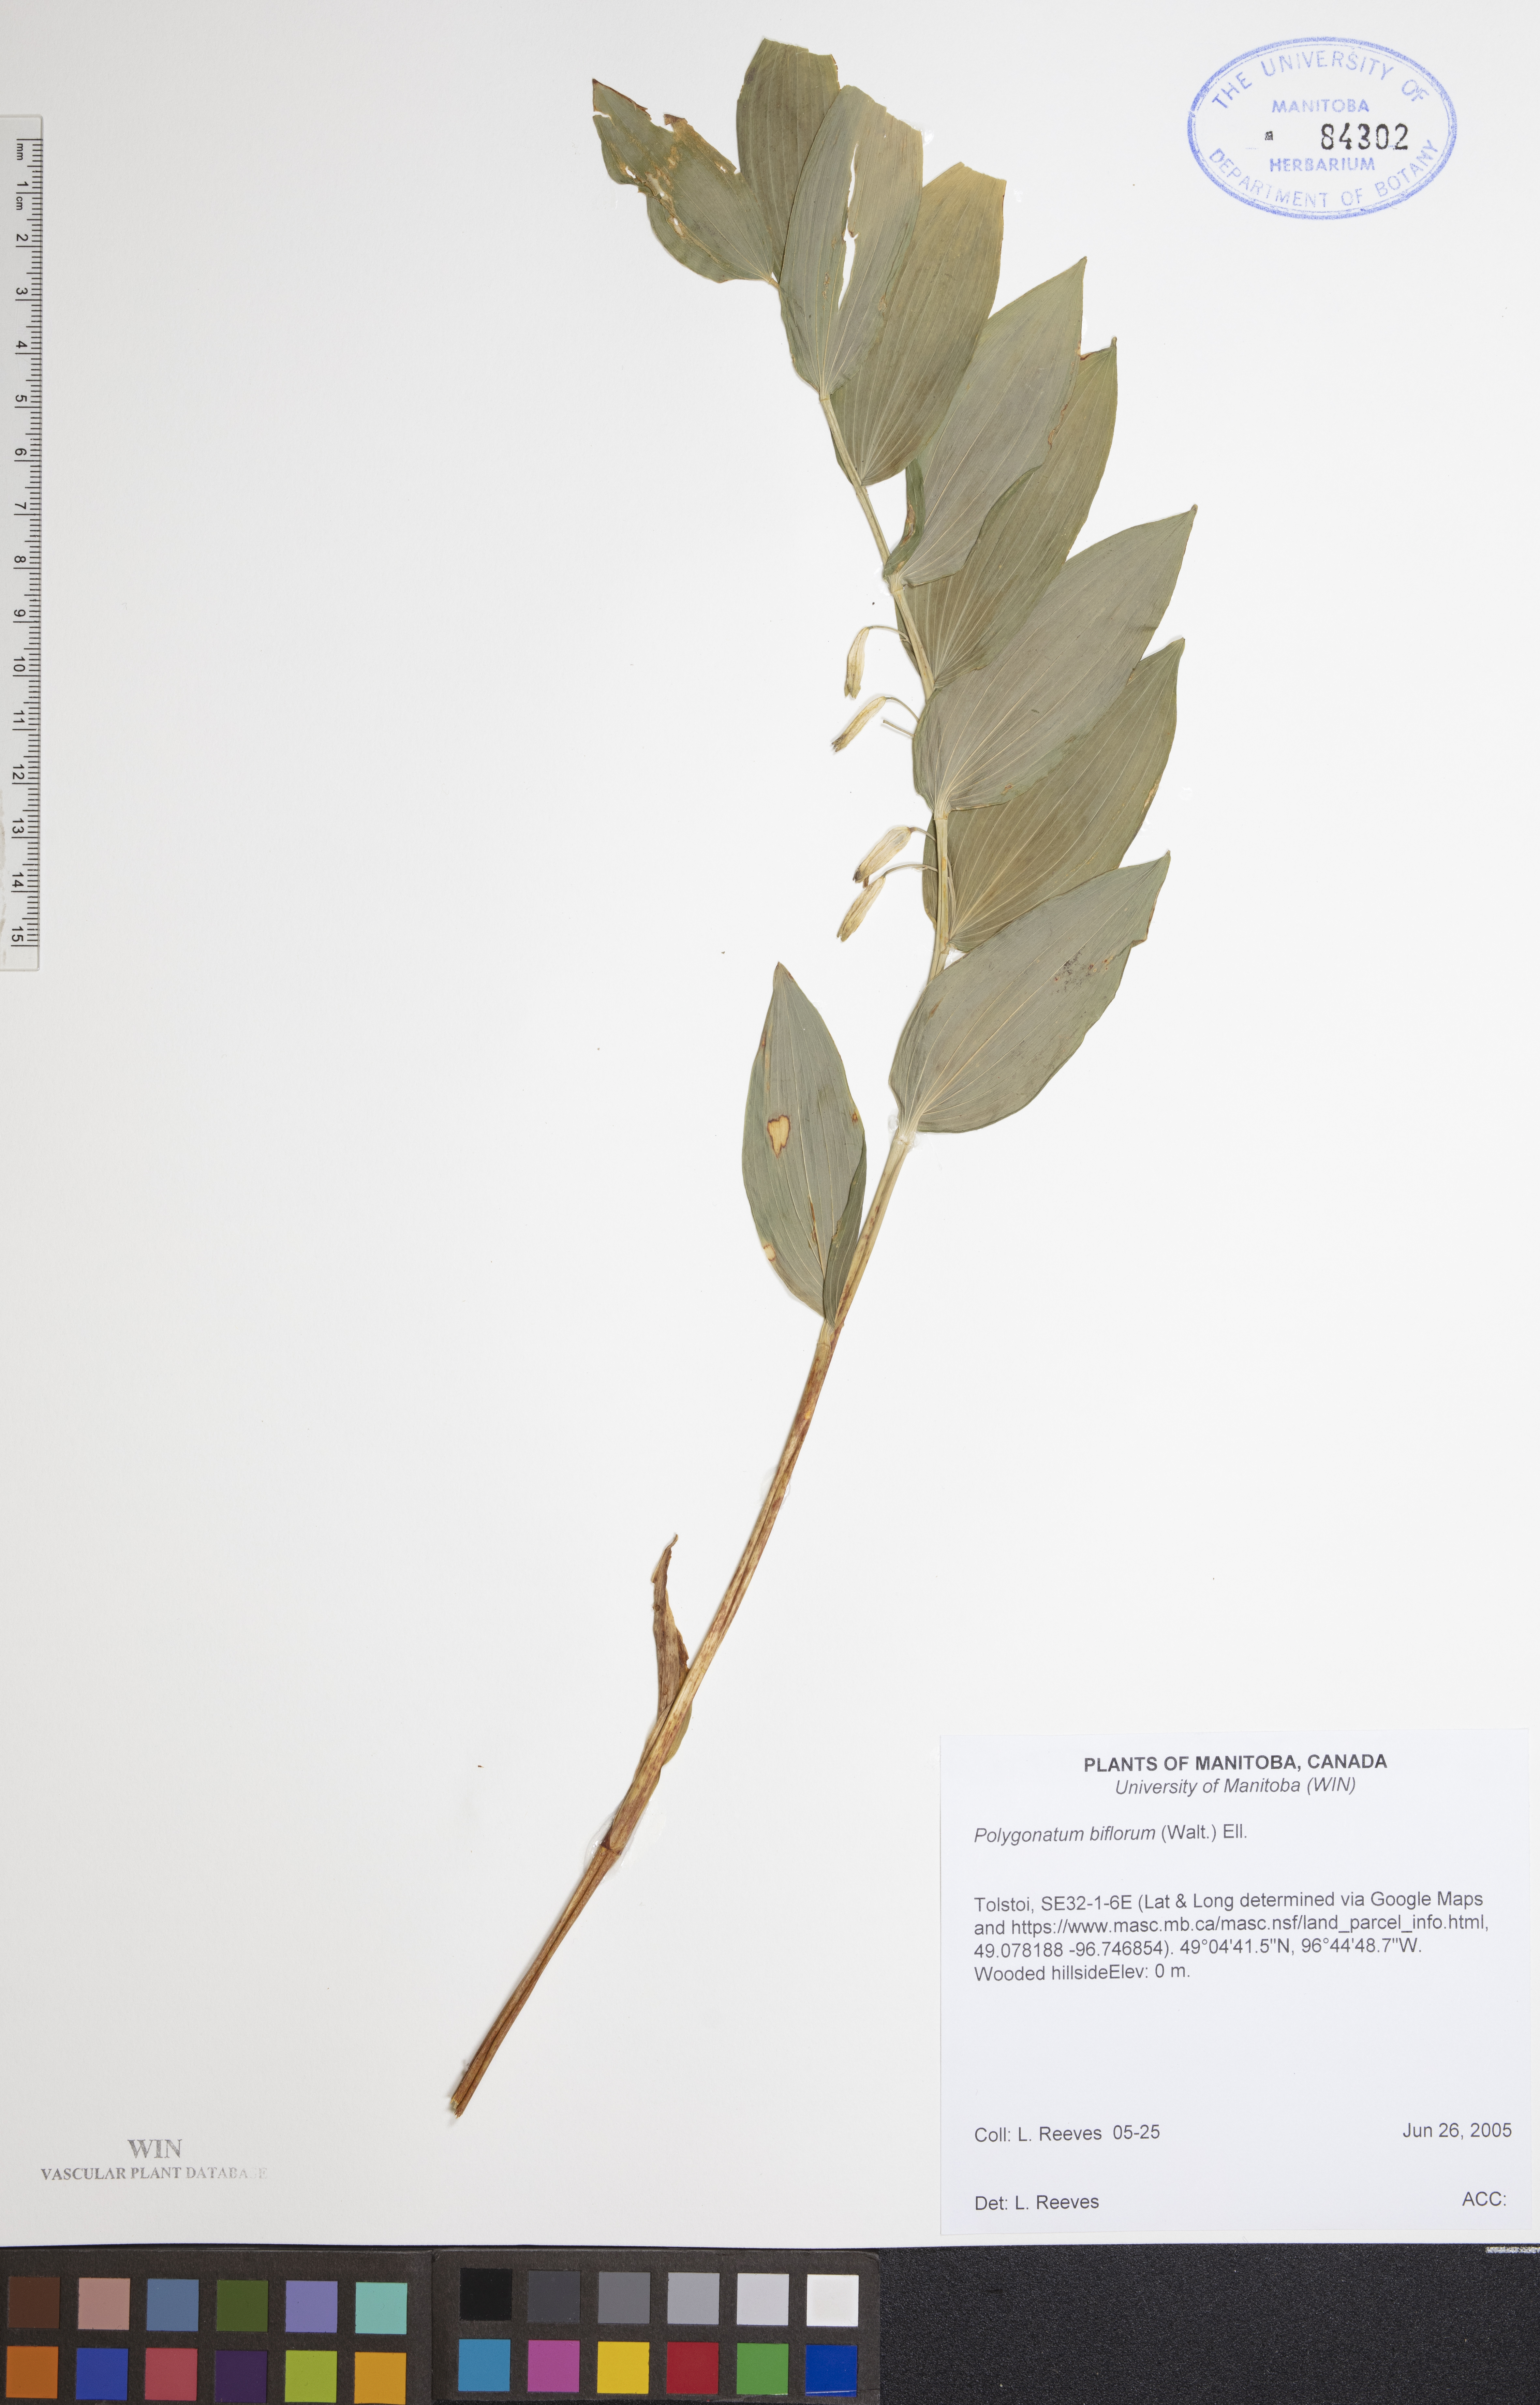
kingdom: Plantae
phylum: Tracheophyta
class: Liliopsida
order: Asparagales
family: Asparagaceae
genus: Polygonatum
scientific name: Polygonatum biflorum
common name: American solomon's-seal
